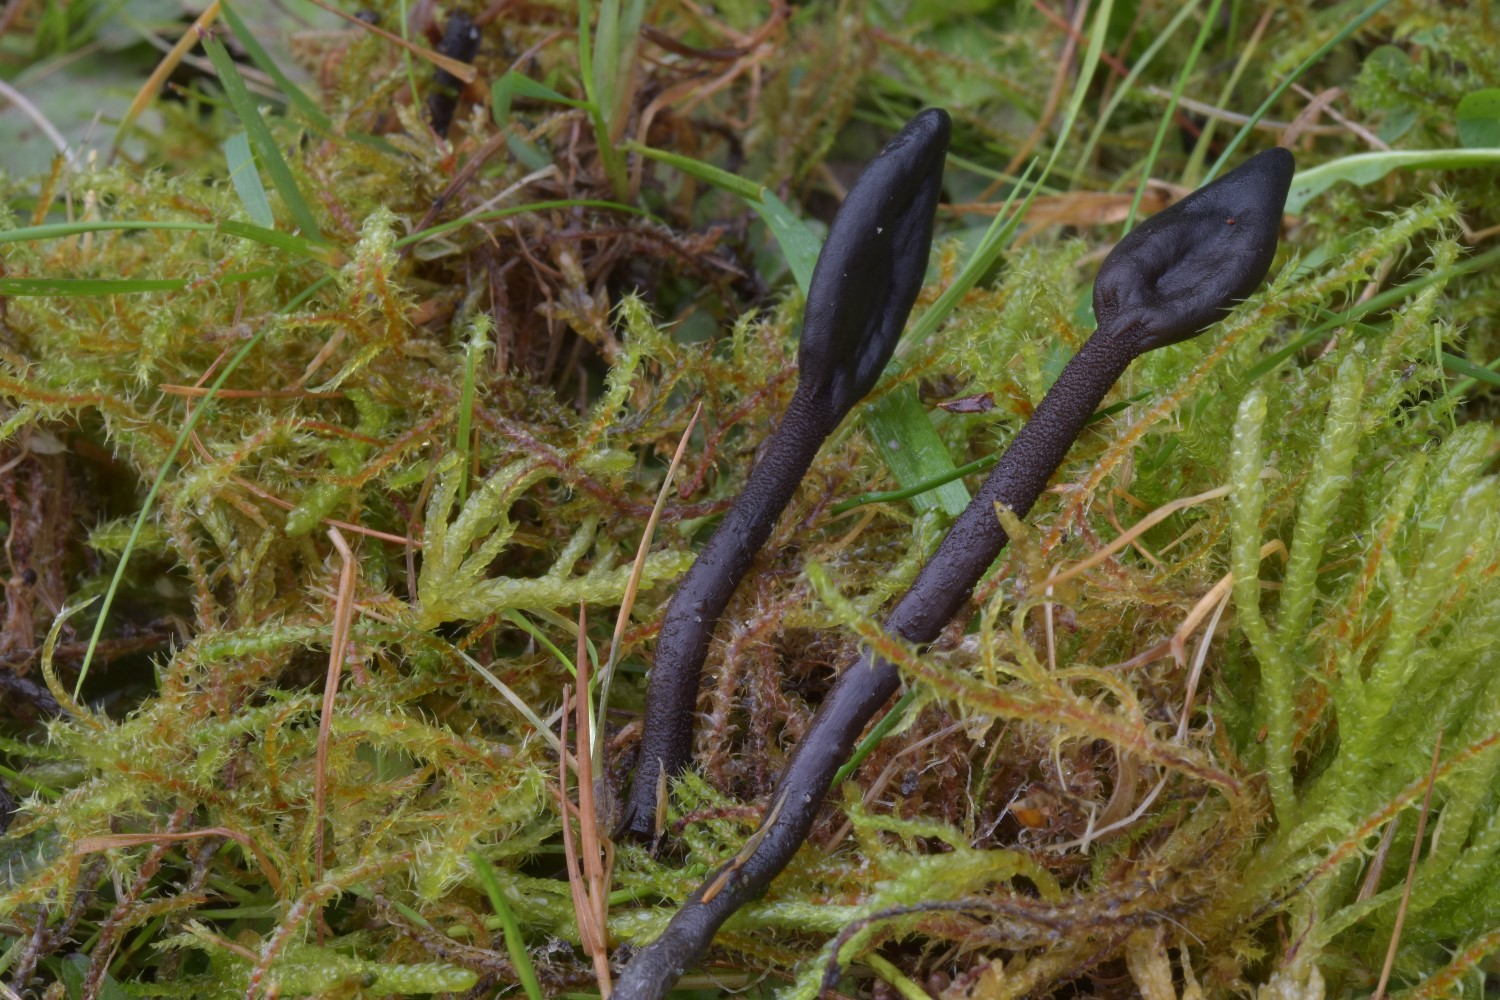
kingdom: Fungi
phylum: Ascomycota
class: Geoglossomycetes
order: Geoglossales
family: Geoglossaceae
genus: Geoglossum
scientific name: Geoglossum fallax
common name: småskællet jordtunge
